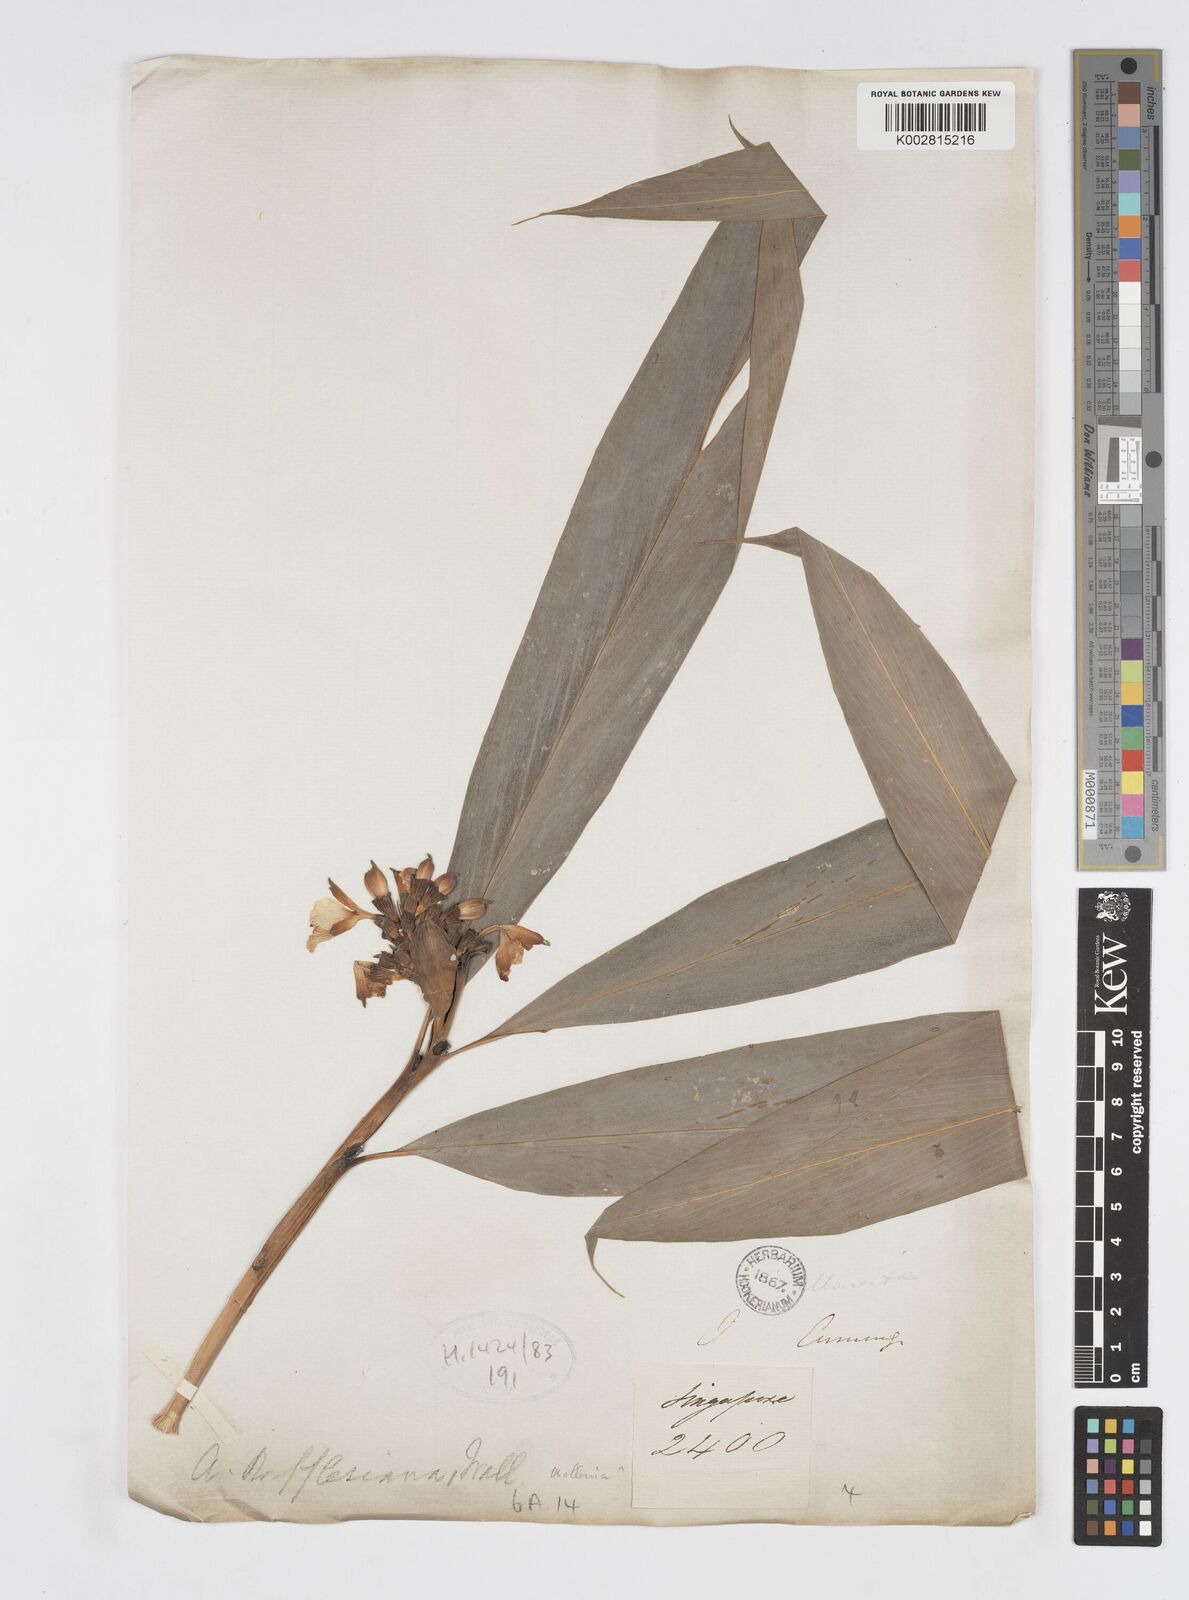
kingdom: Plantae
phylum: Tracheophyta
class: Liliopsida
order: Zingiberales
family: Zingiberaceae
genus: Alpinia
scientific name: Alpinia rafflesiana
